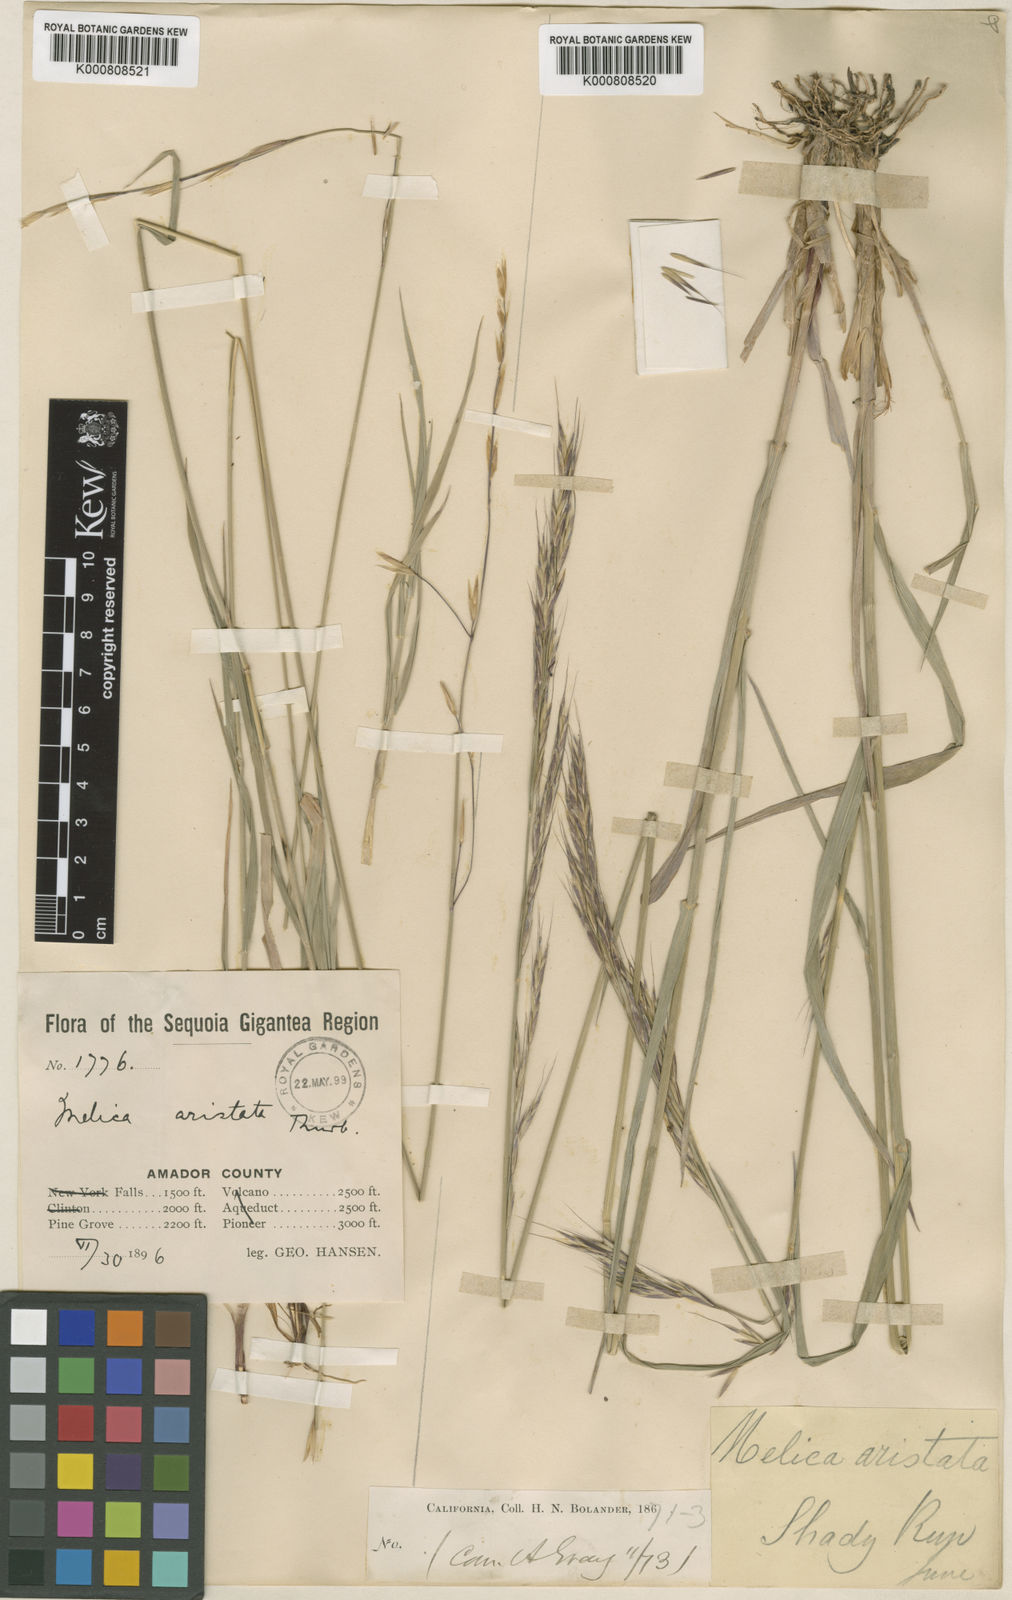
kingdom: Plantae
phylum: Tracheophyta
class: Liliopsida
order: Poales
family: Poaceae
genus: Melica
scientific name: Melica aristata
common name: Awned melic
